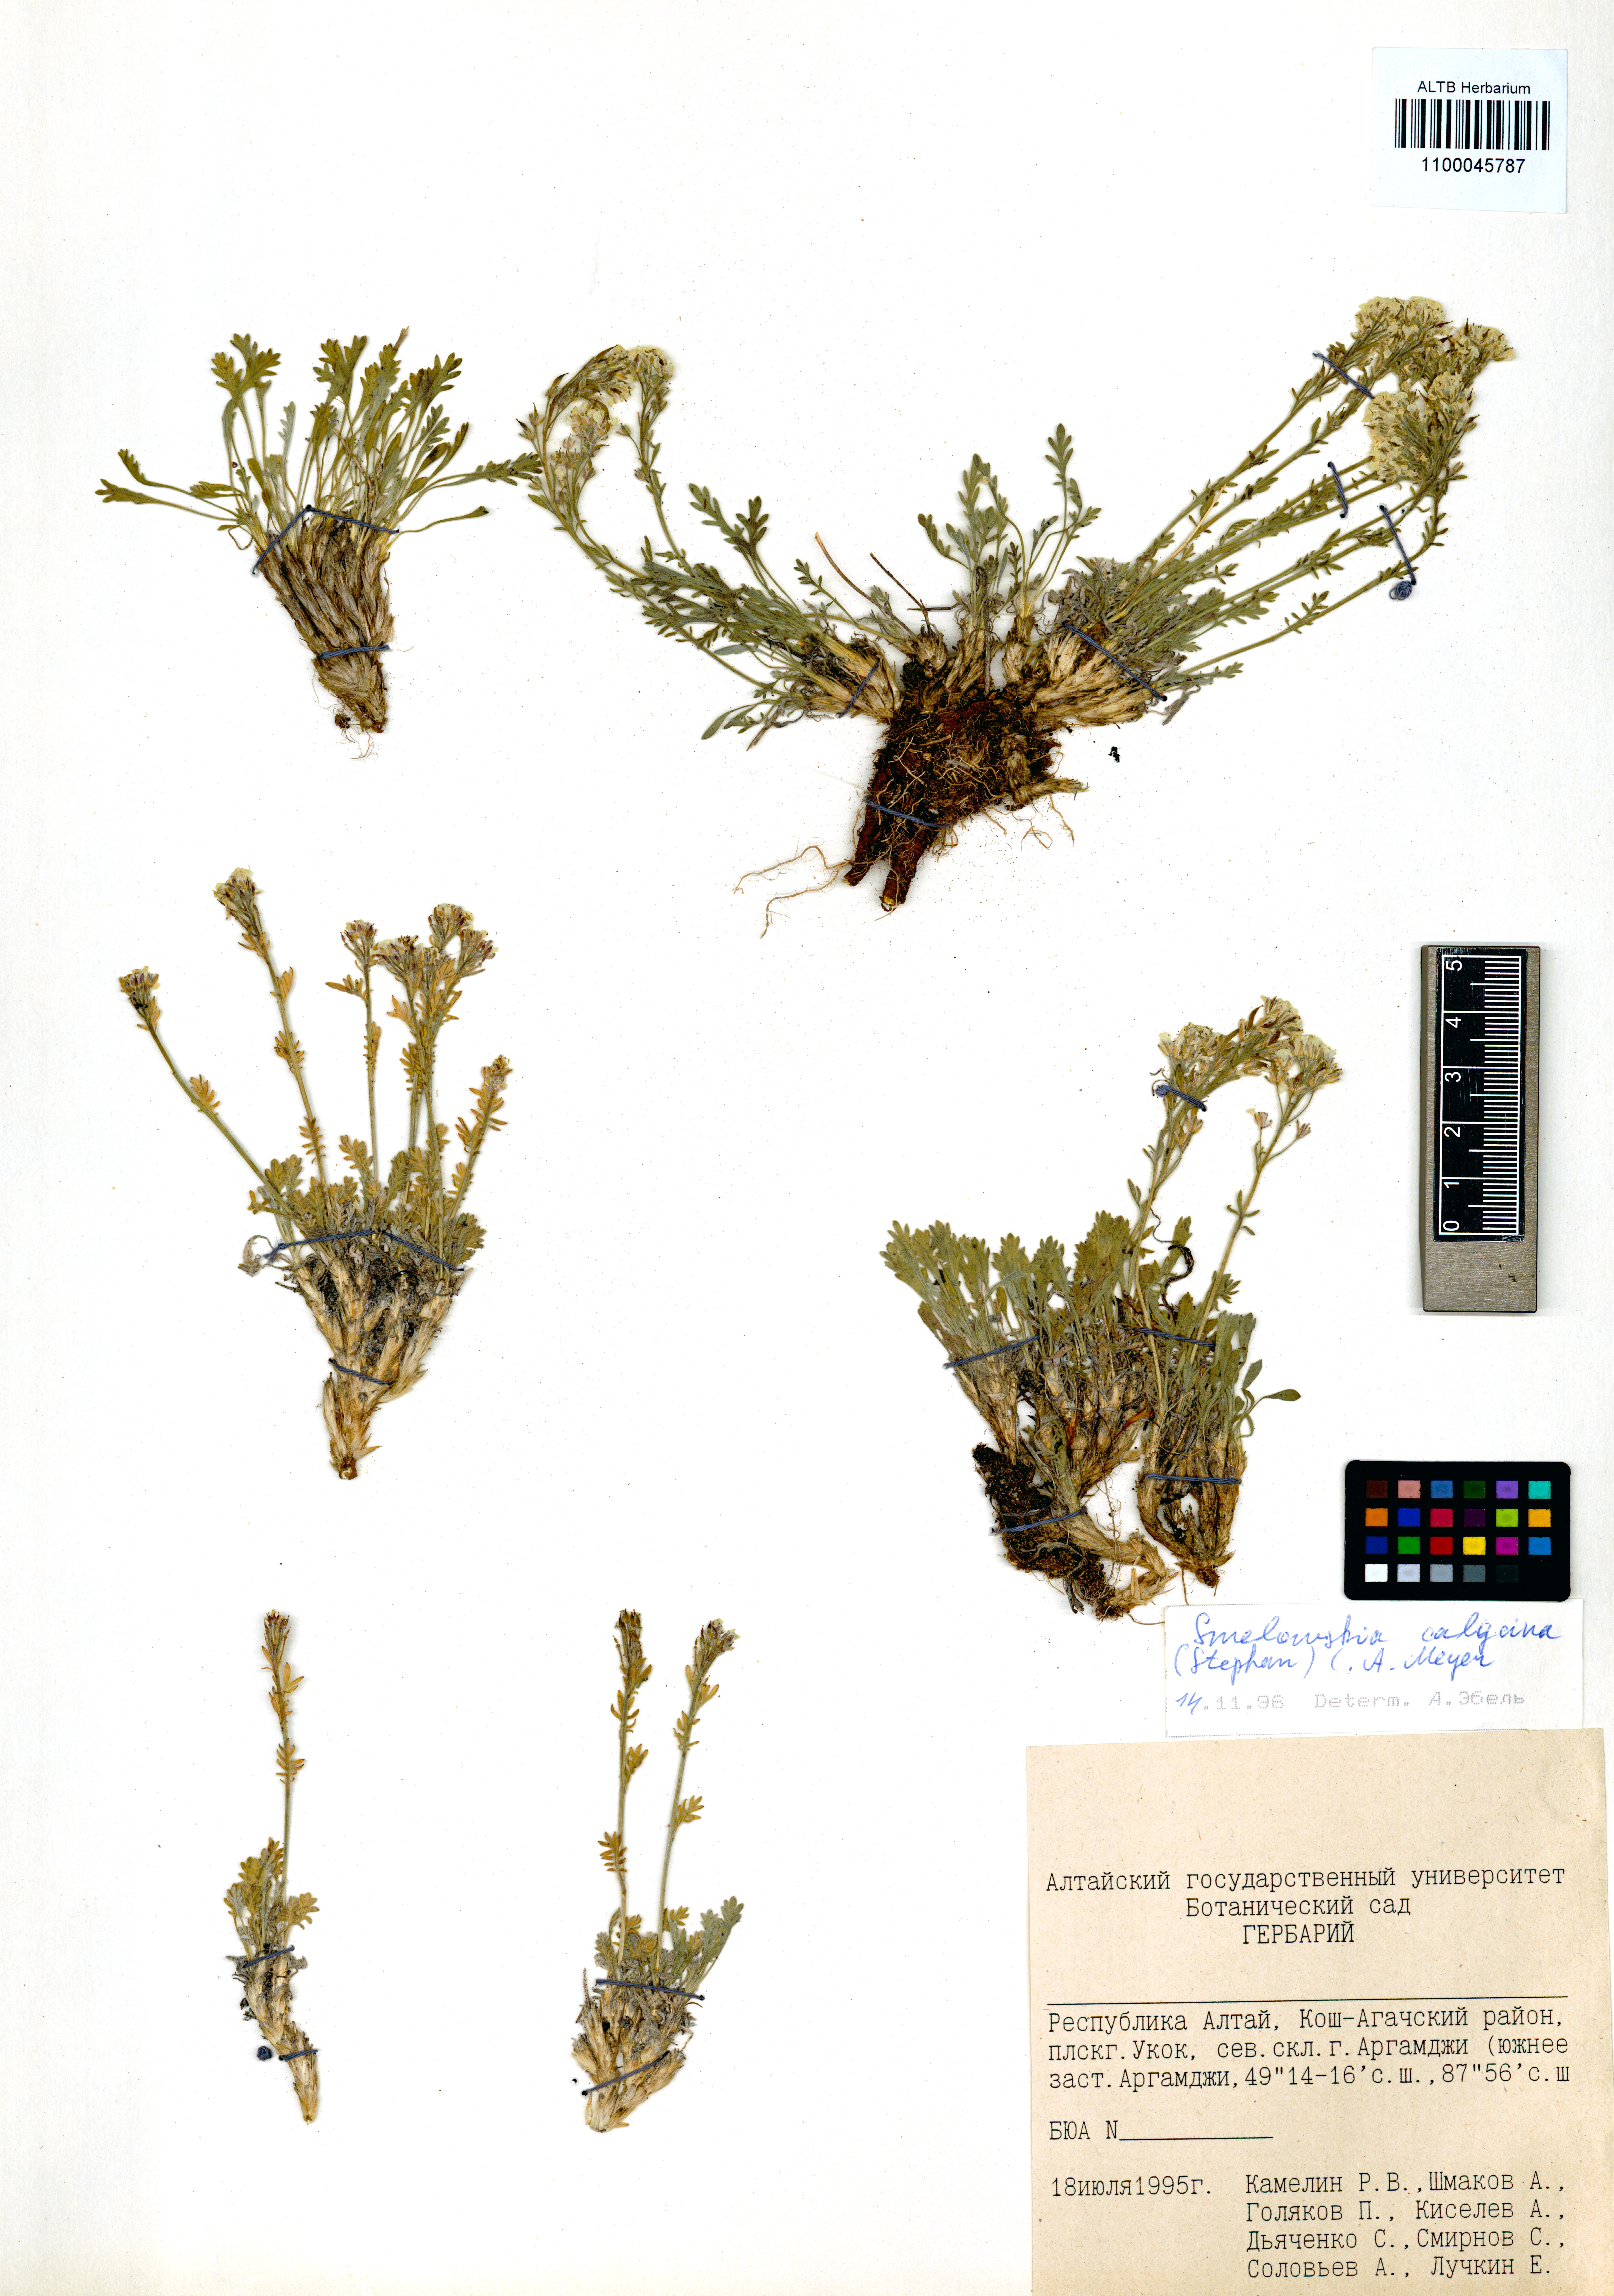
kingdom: Plantae
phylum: Tracheophyta
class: Magnoliopsida
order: Brassicales
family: Brassicaceae
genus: Smelowskia
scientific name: Smelowskia calycina
